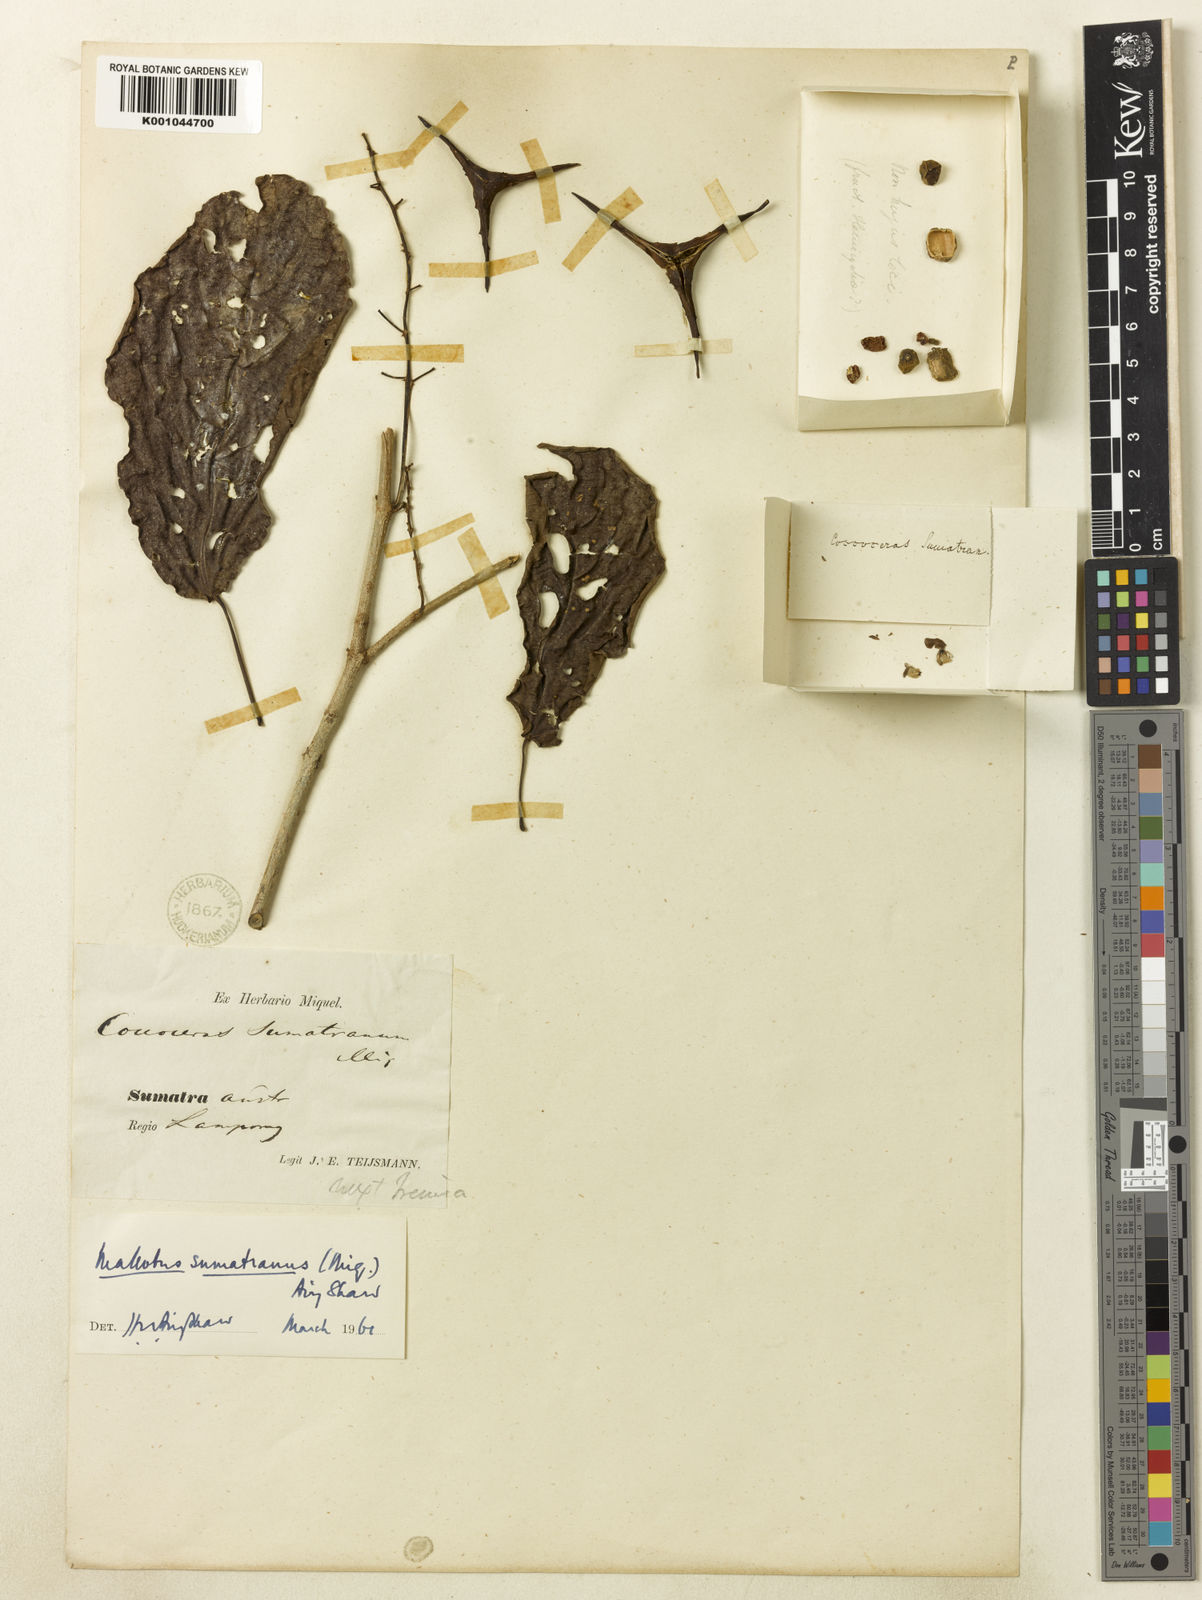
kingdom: Plantae
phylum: Tracheophyta
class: Magnoliopsida
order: Malpighiales
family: Euphorbiaceae
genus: Mallotus
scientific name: Mallotus sumatranus
